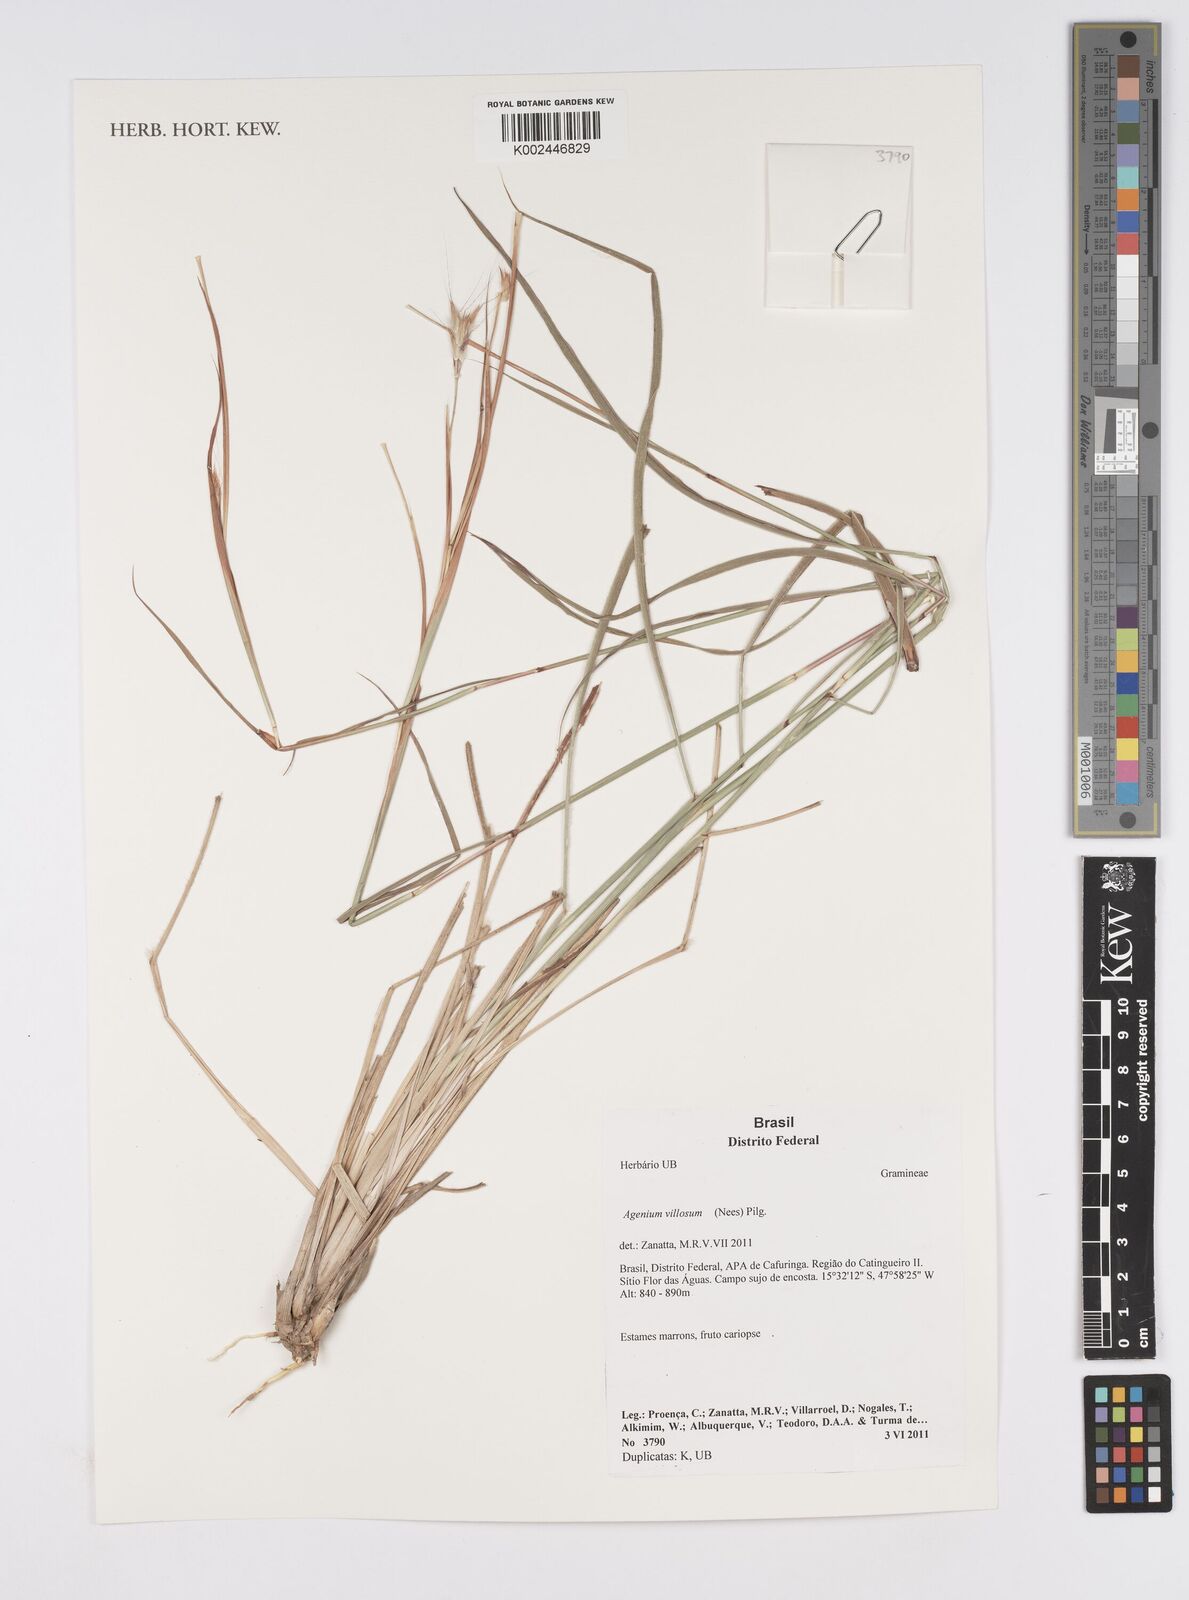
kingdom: Plantae
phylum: Tracheophyta
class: Liliopsida
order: Poales
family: Poaceae
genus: Agenium
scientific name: Agenium villosum
